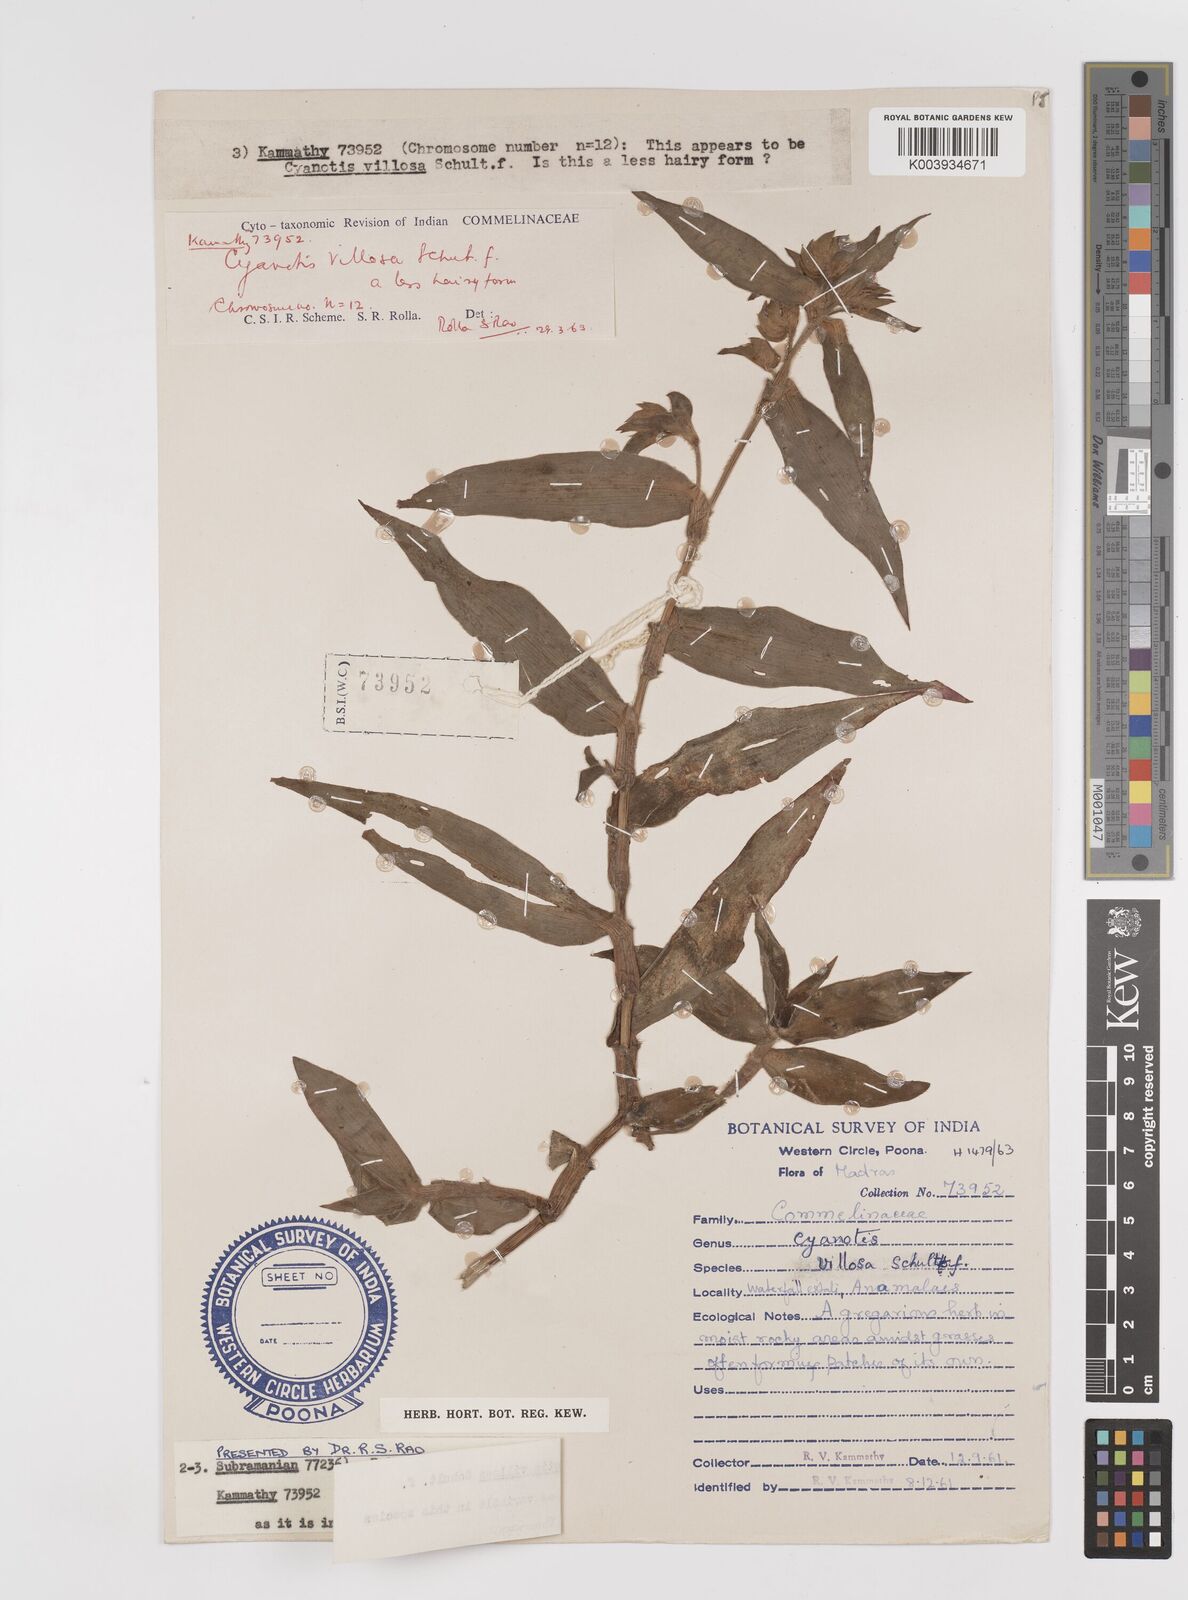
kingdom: Plantae
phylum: Tracheophyta
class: Liliopsida
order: Commelinales
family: Commelinaceae
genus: Cyanotis
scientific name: Cyanotis villosa
